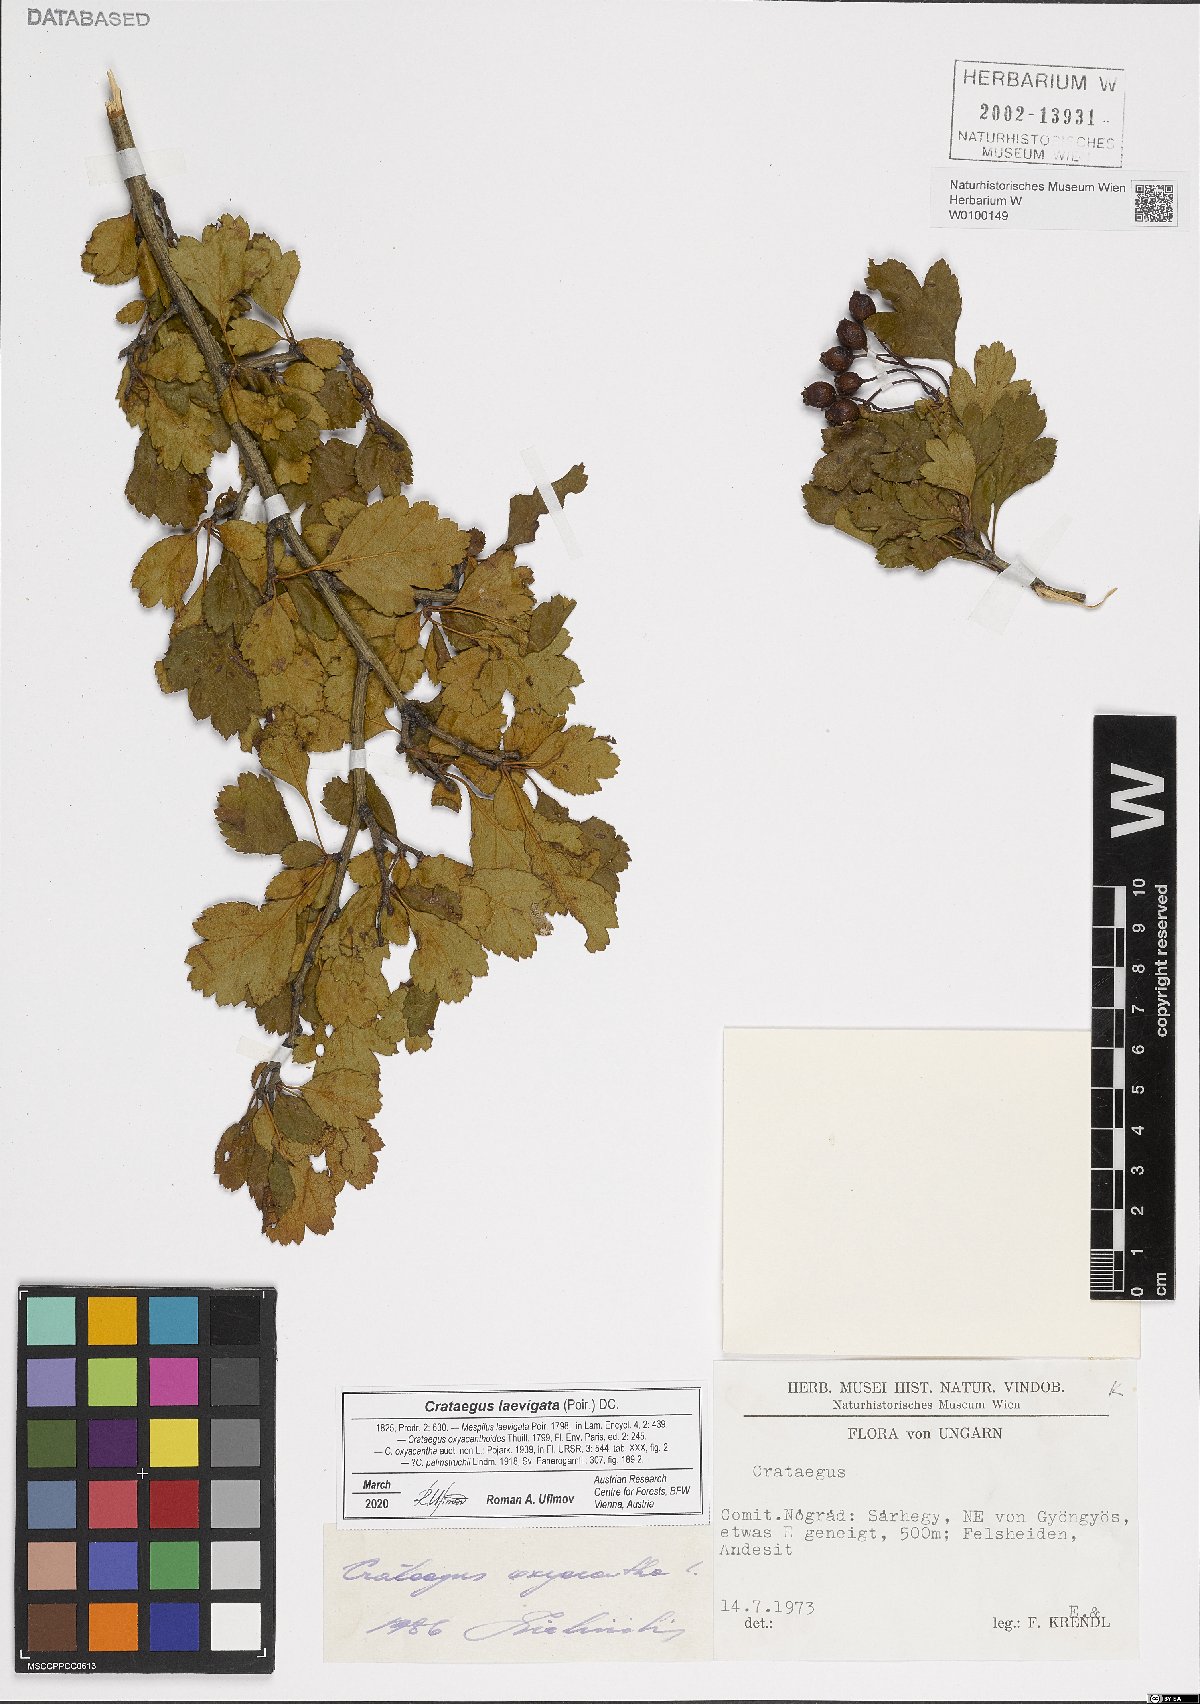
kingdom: Plantae
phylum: Tracheophyta
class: Magnoliopsida
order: Rosales
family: Rosaceae
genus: Crataegus
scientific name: Crataegus laevigata
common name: Midland hawthorn
